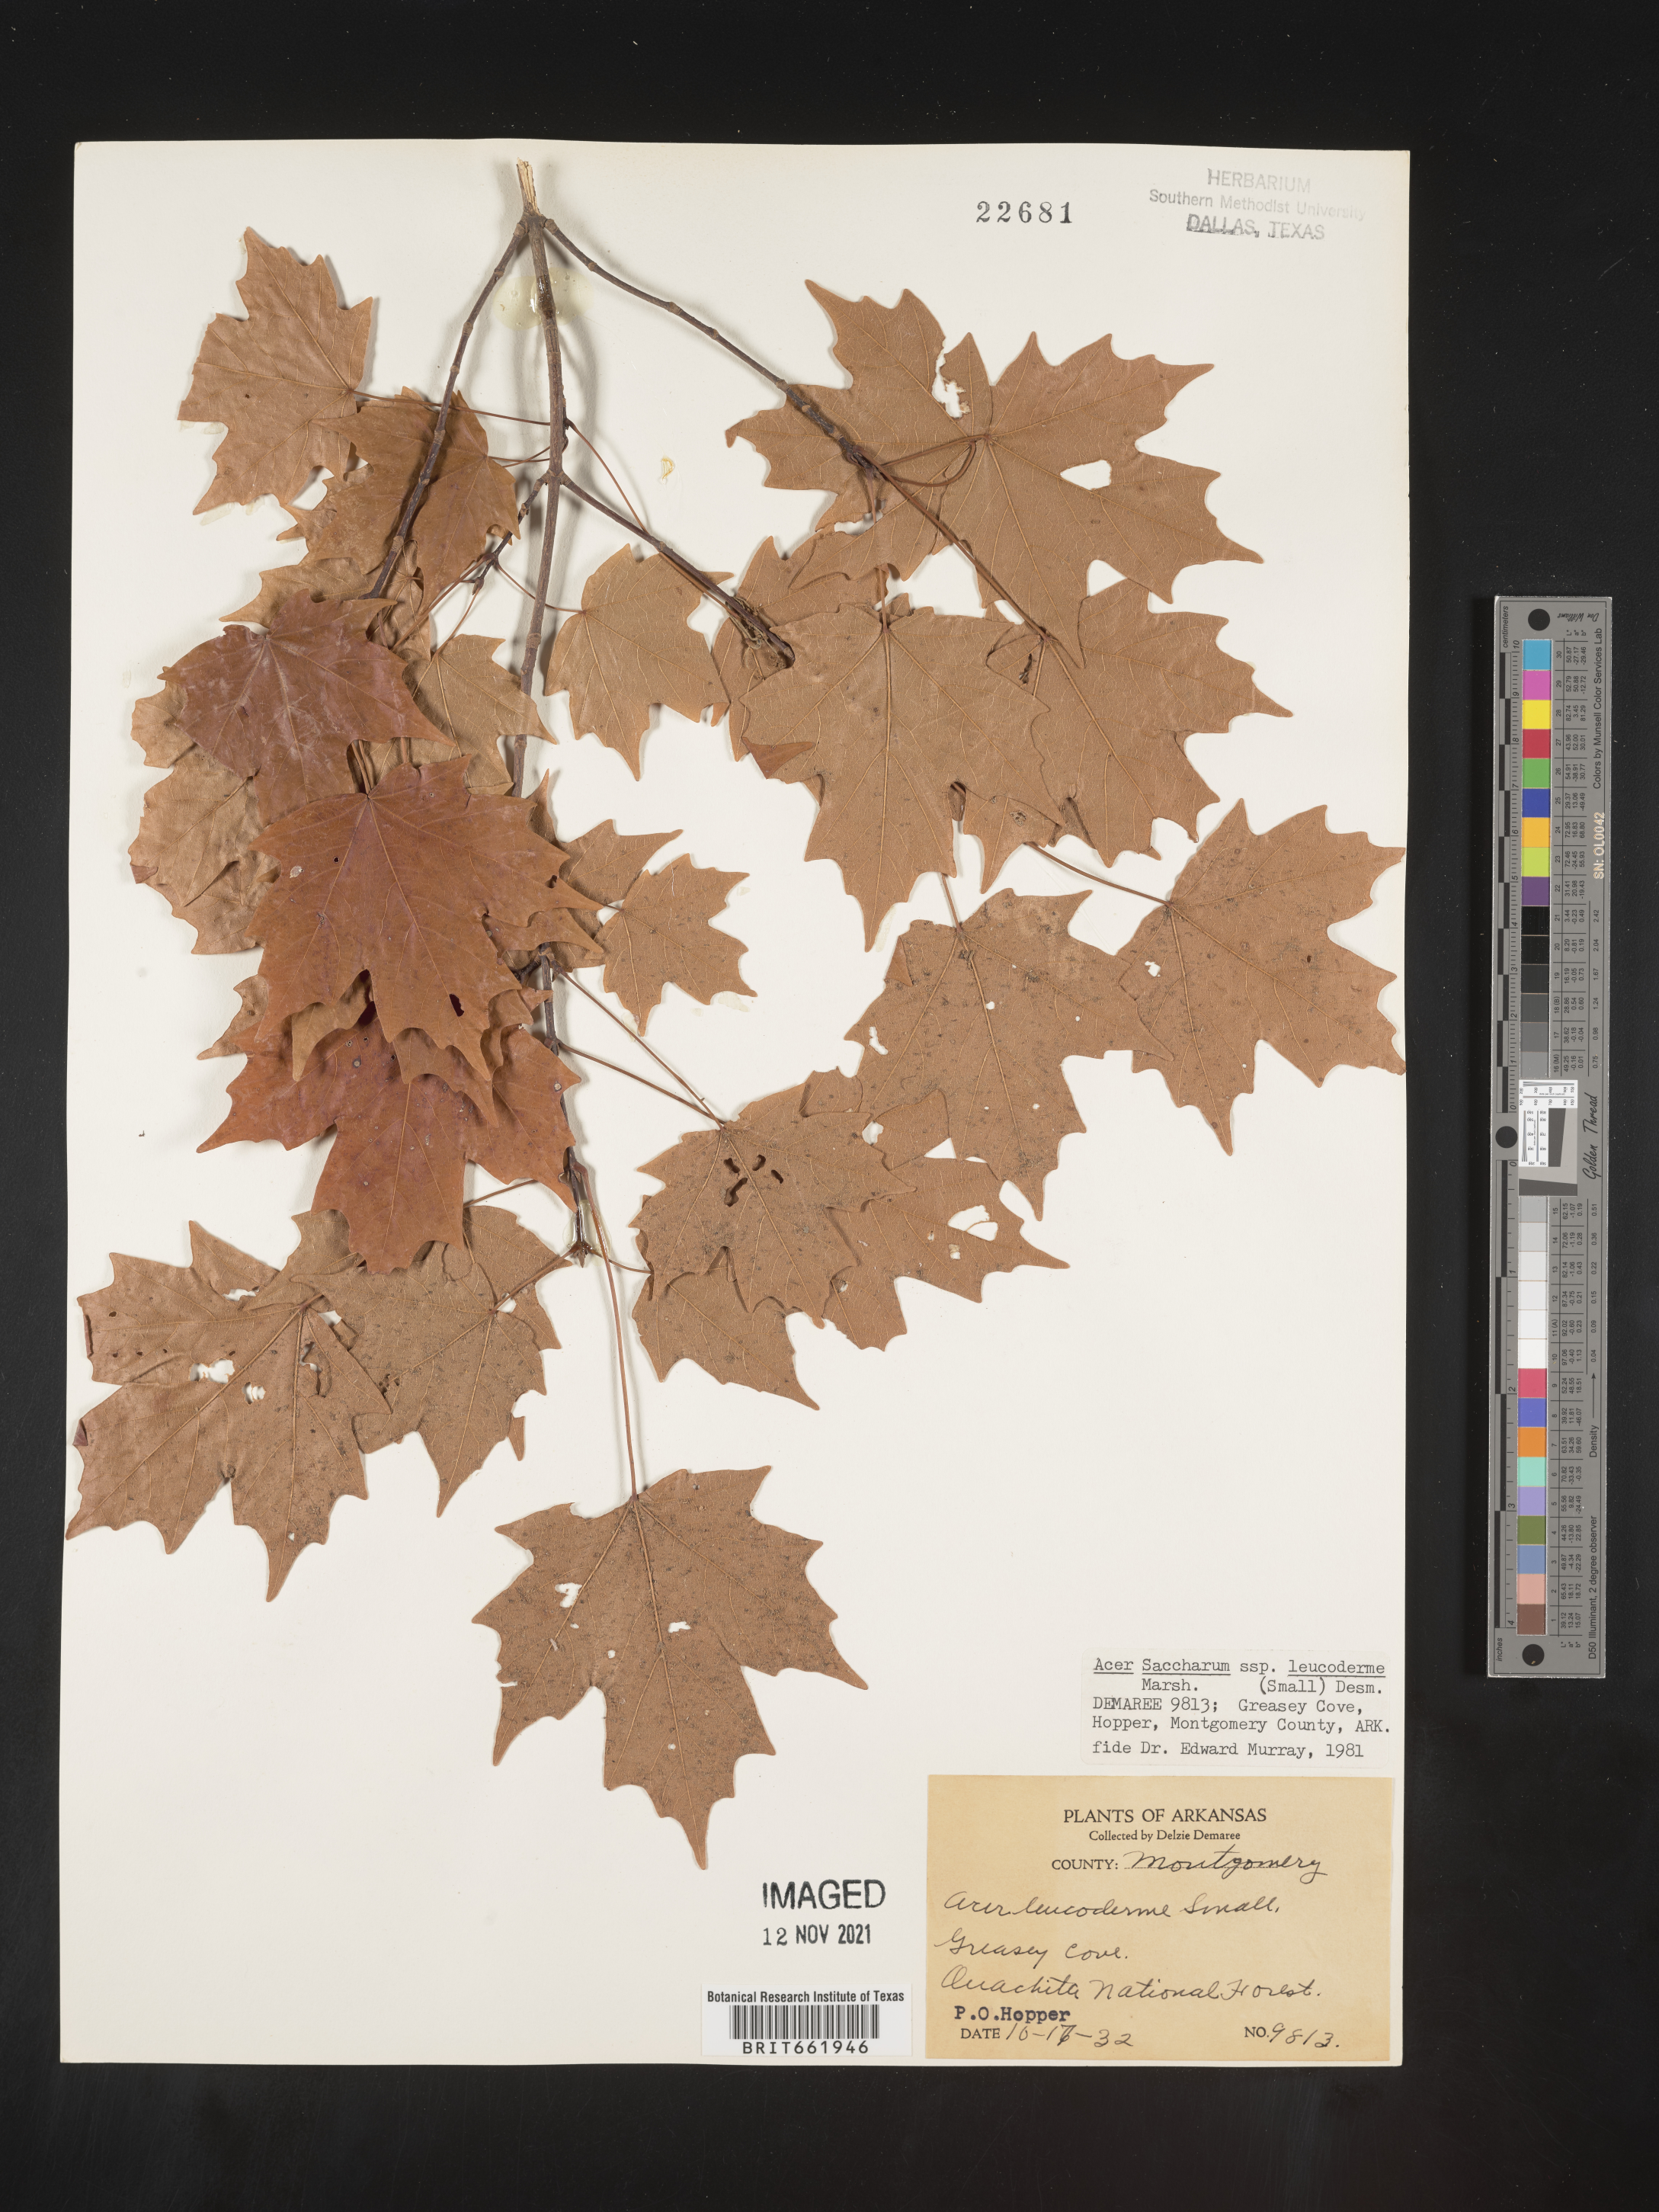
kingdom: Plantae
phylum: Tracheophyta
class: Magnoliopsida
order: Sapindales
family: Sapindaceae
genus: Acer
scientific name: Acer leucoderme
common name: Chalk maple
